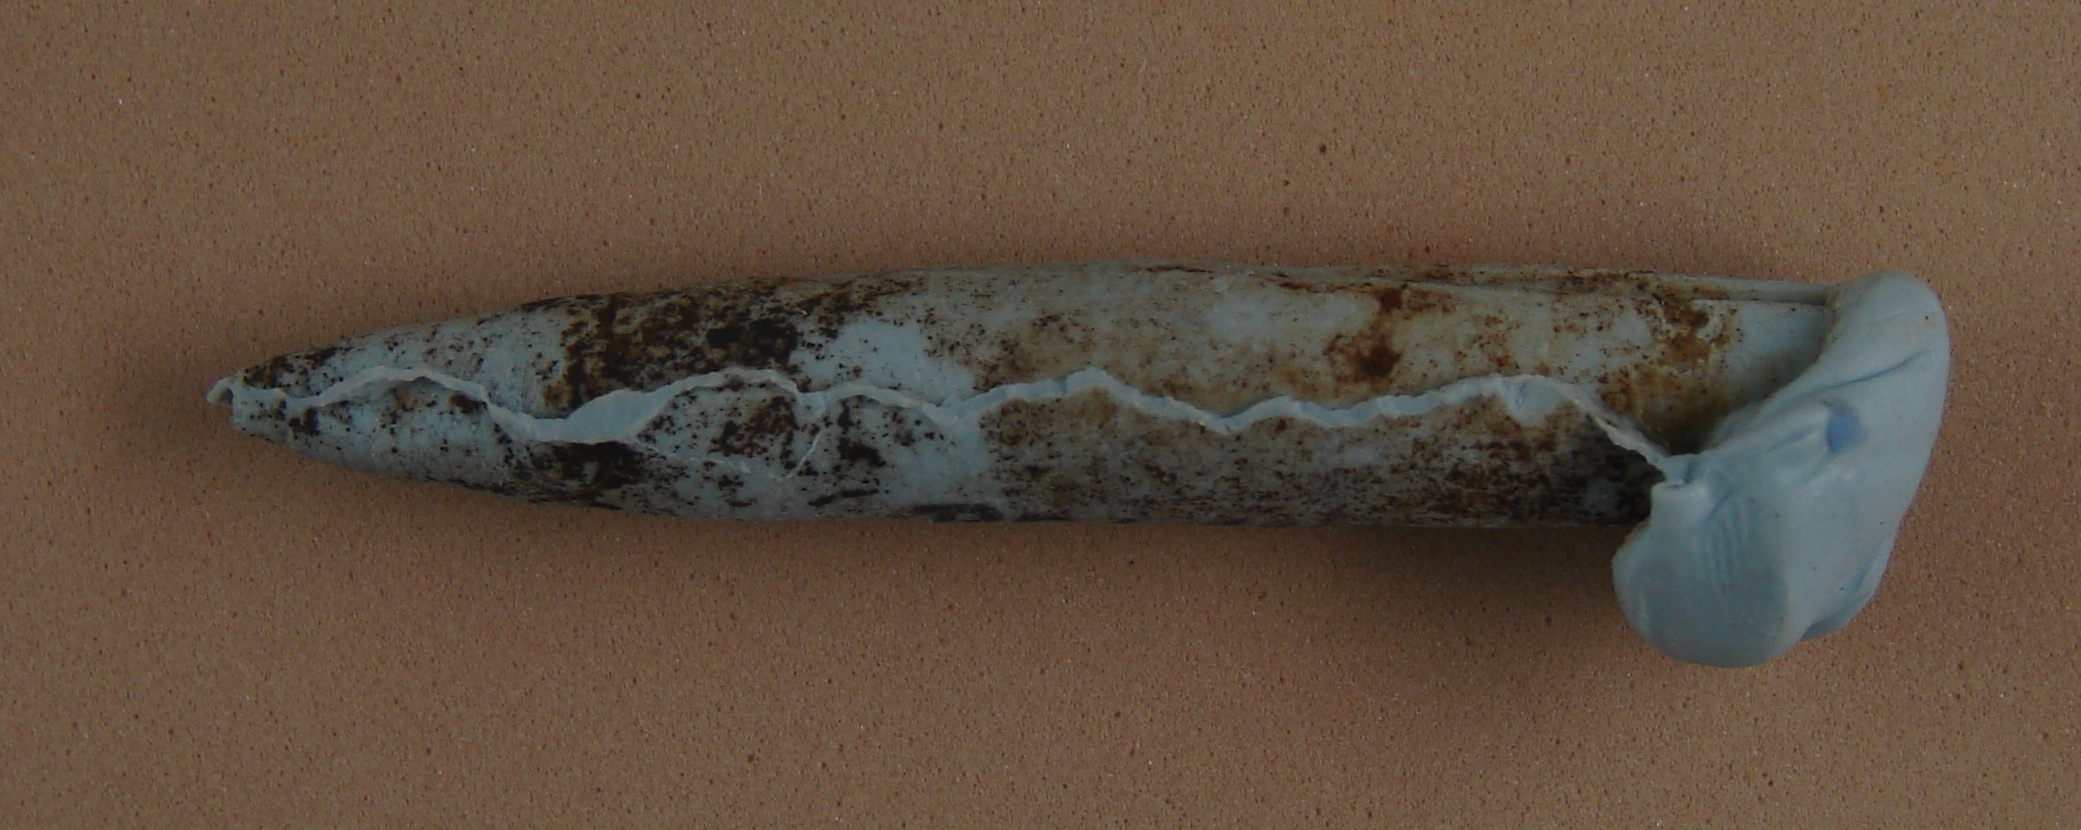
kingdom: Animalia
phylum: Mollusca
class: Cephalopoda
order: Belemnitida
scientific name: Belemnitida
